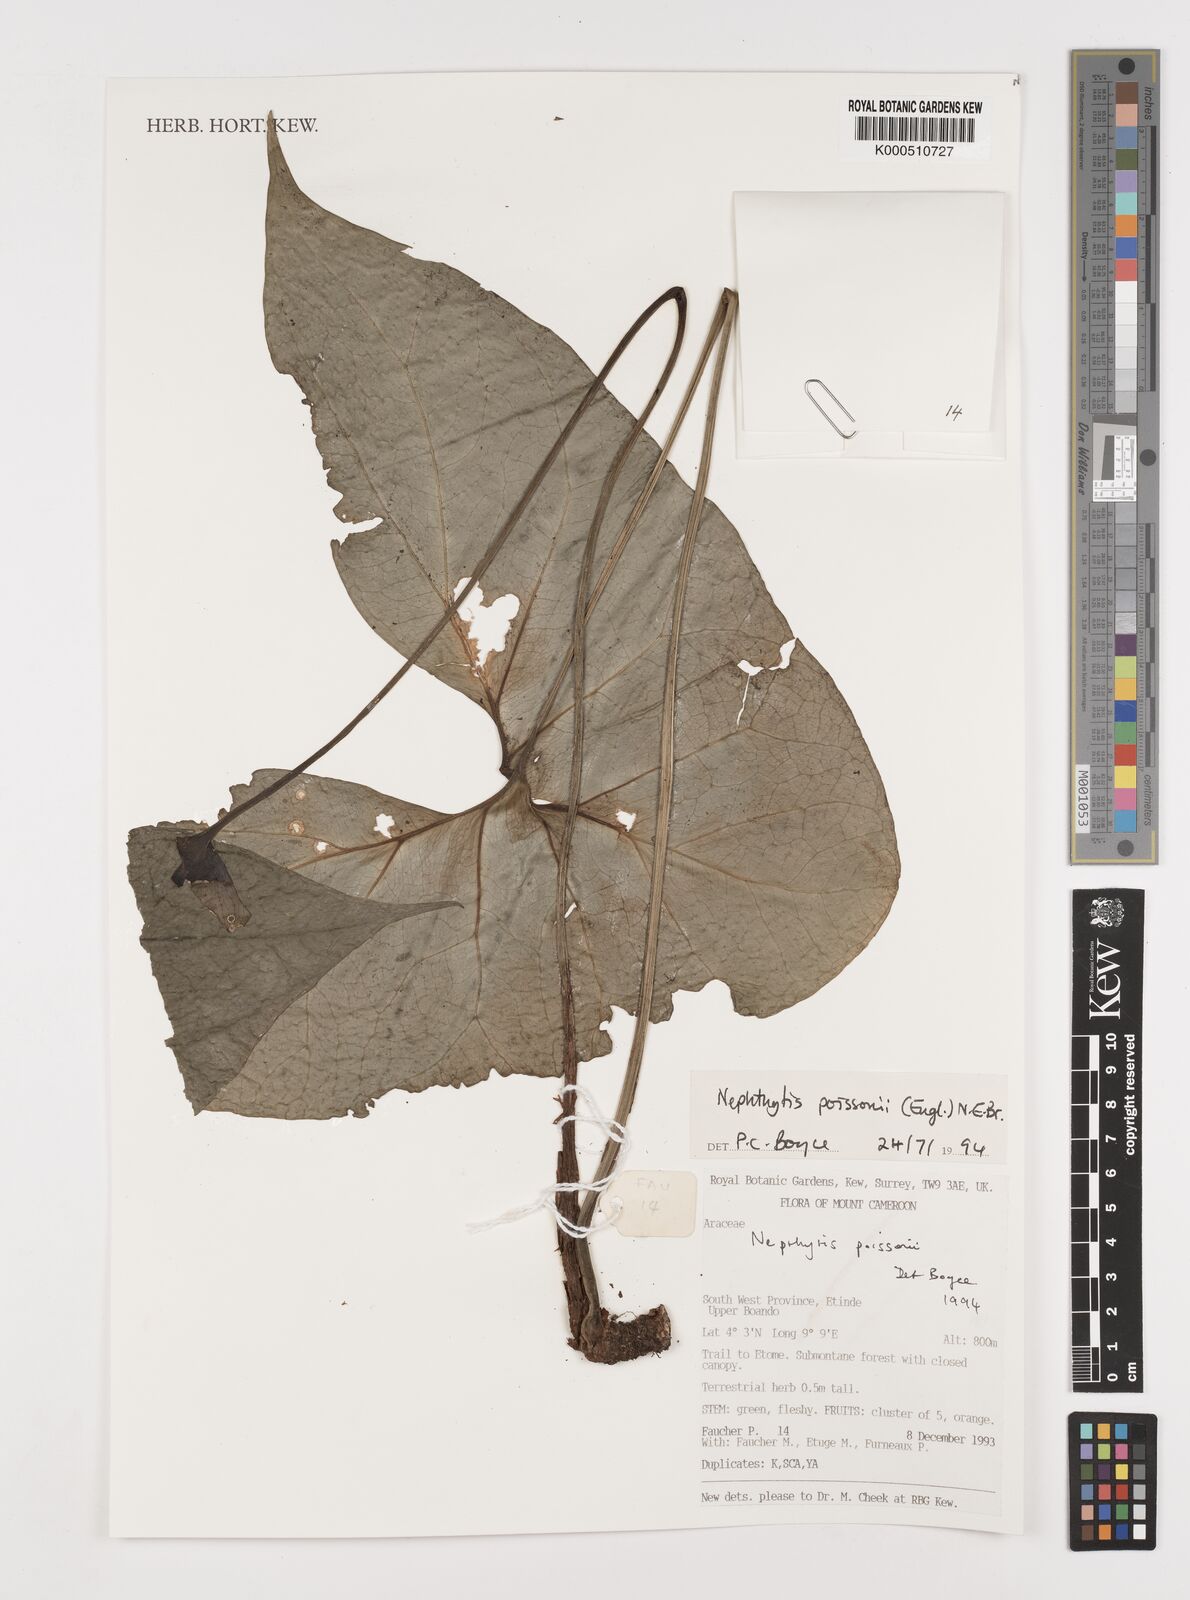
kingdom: Plantae
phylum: Tracheophyta
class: Liliopsida
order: Alismatales
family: Araceae
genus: Nephthytis
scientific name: Nephthytis poissonii
